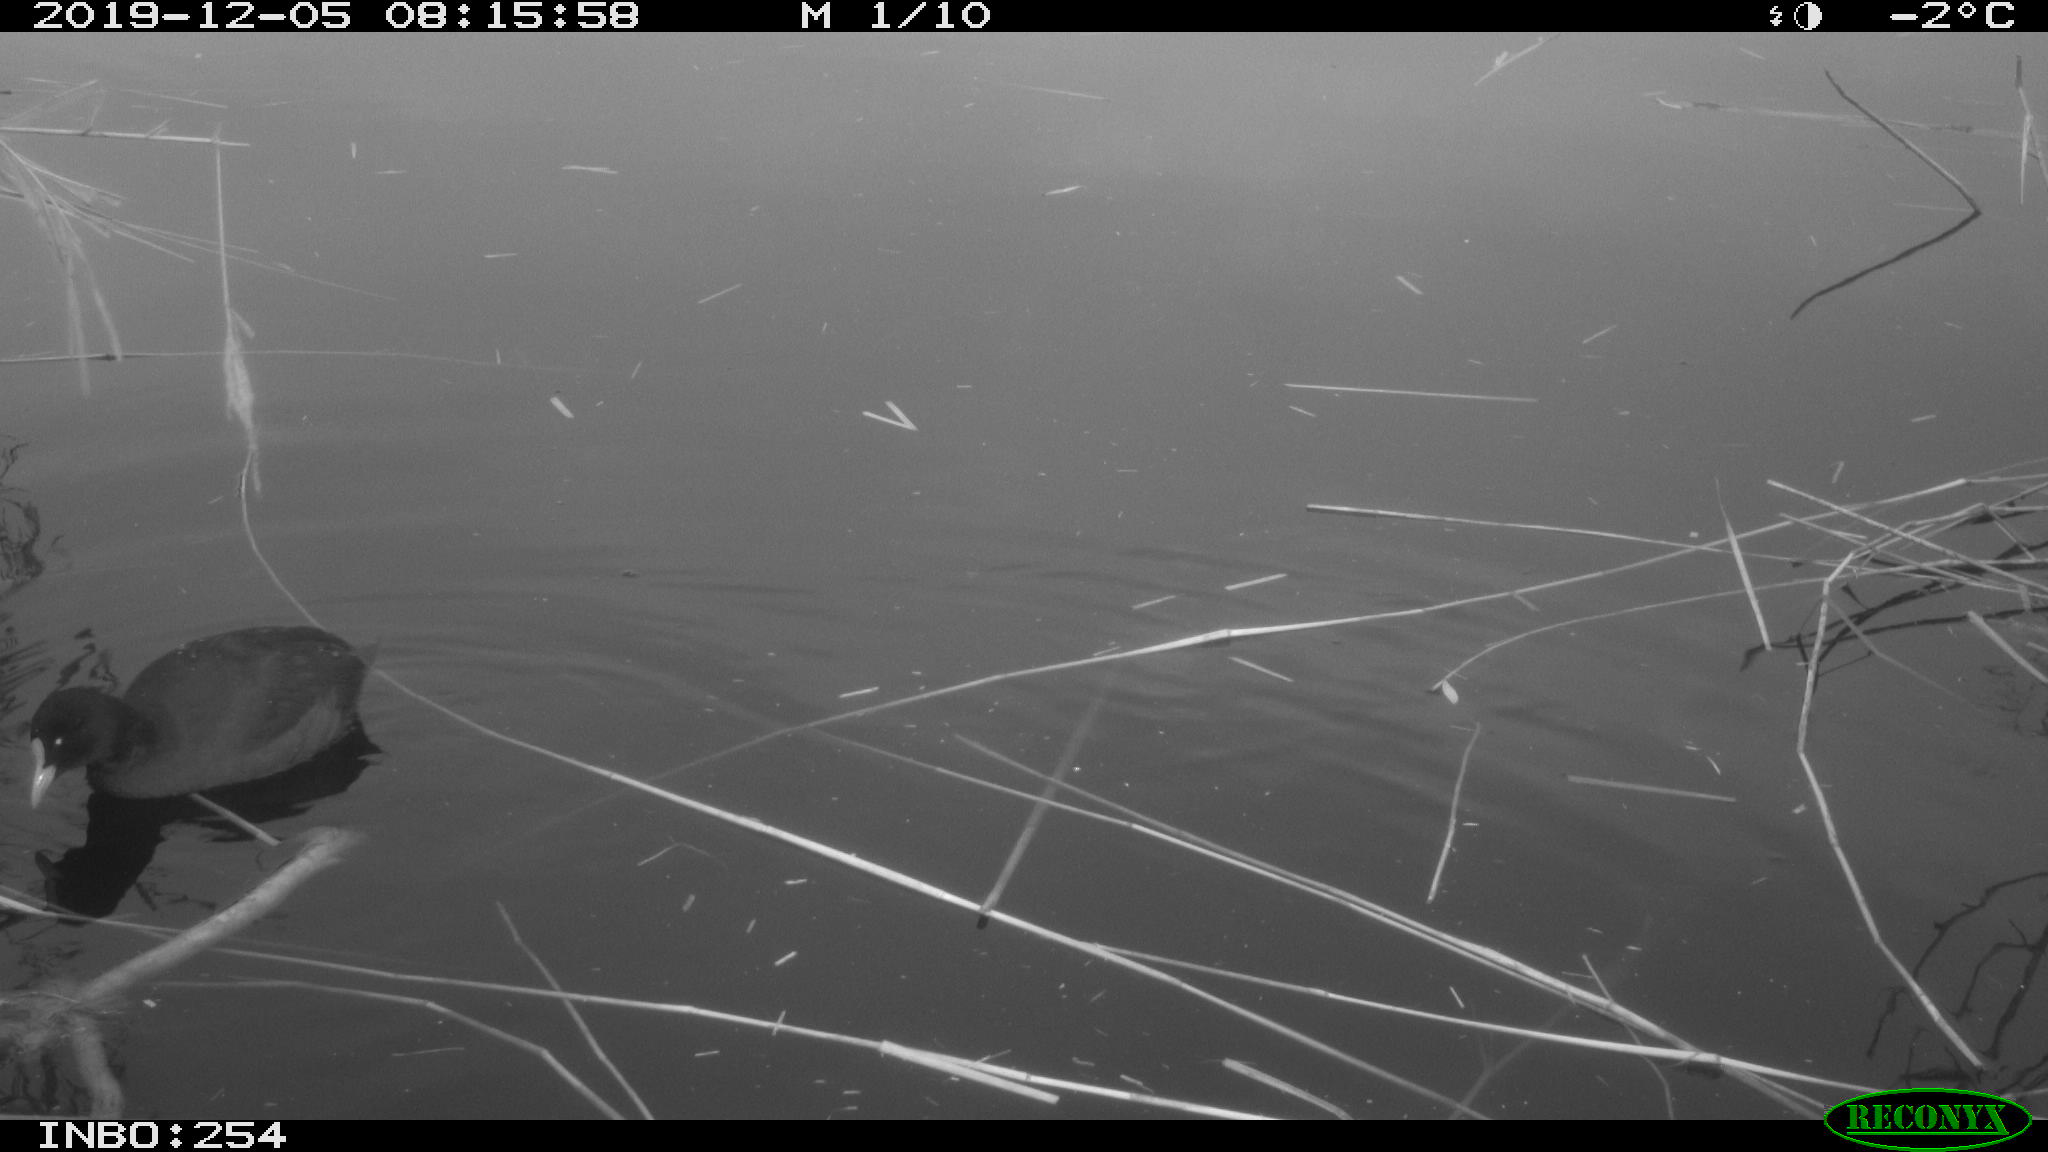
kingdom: Animalia
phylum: Chordata
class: Aves
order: Gruiformes
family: Rallidae
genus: Fulica
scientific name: Fulica atra
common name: Eurasian coot
